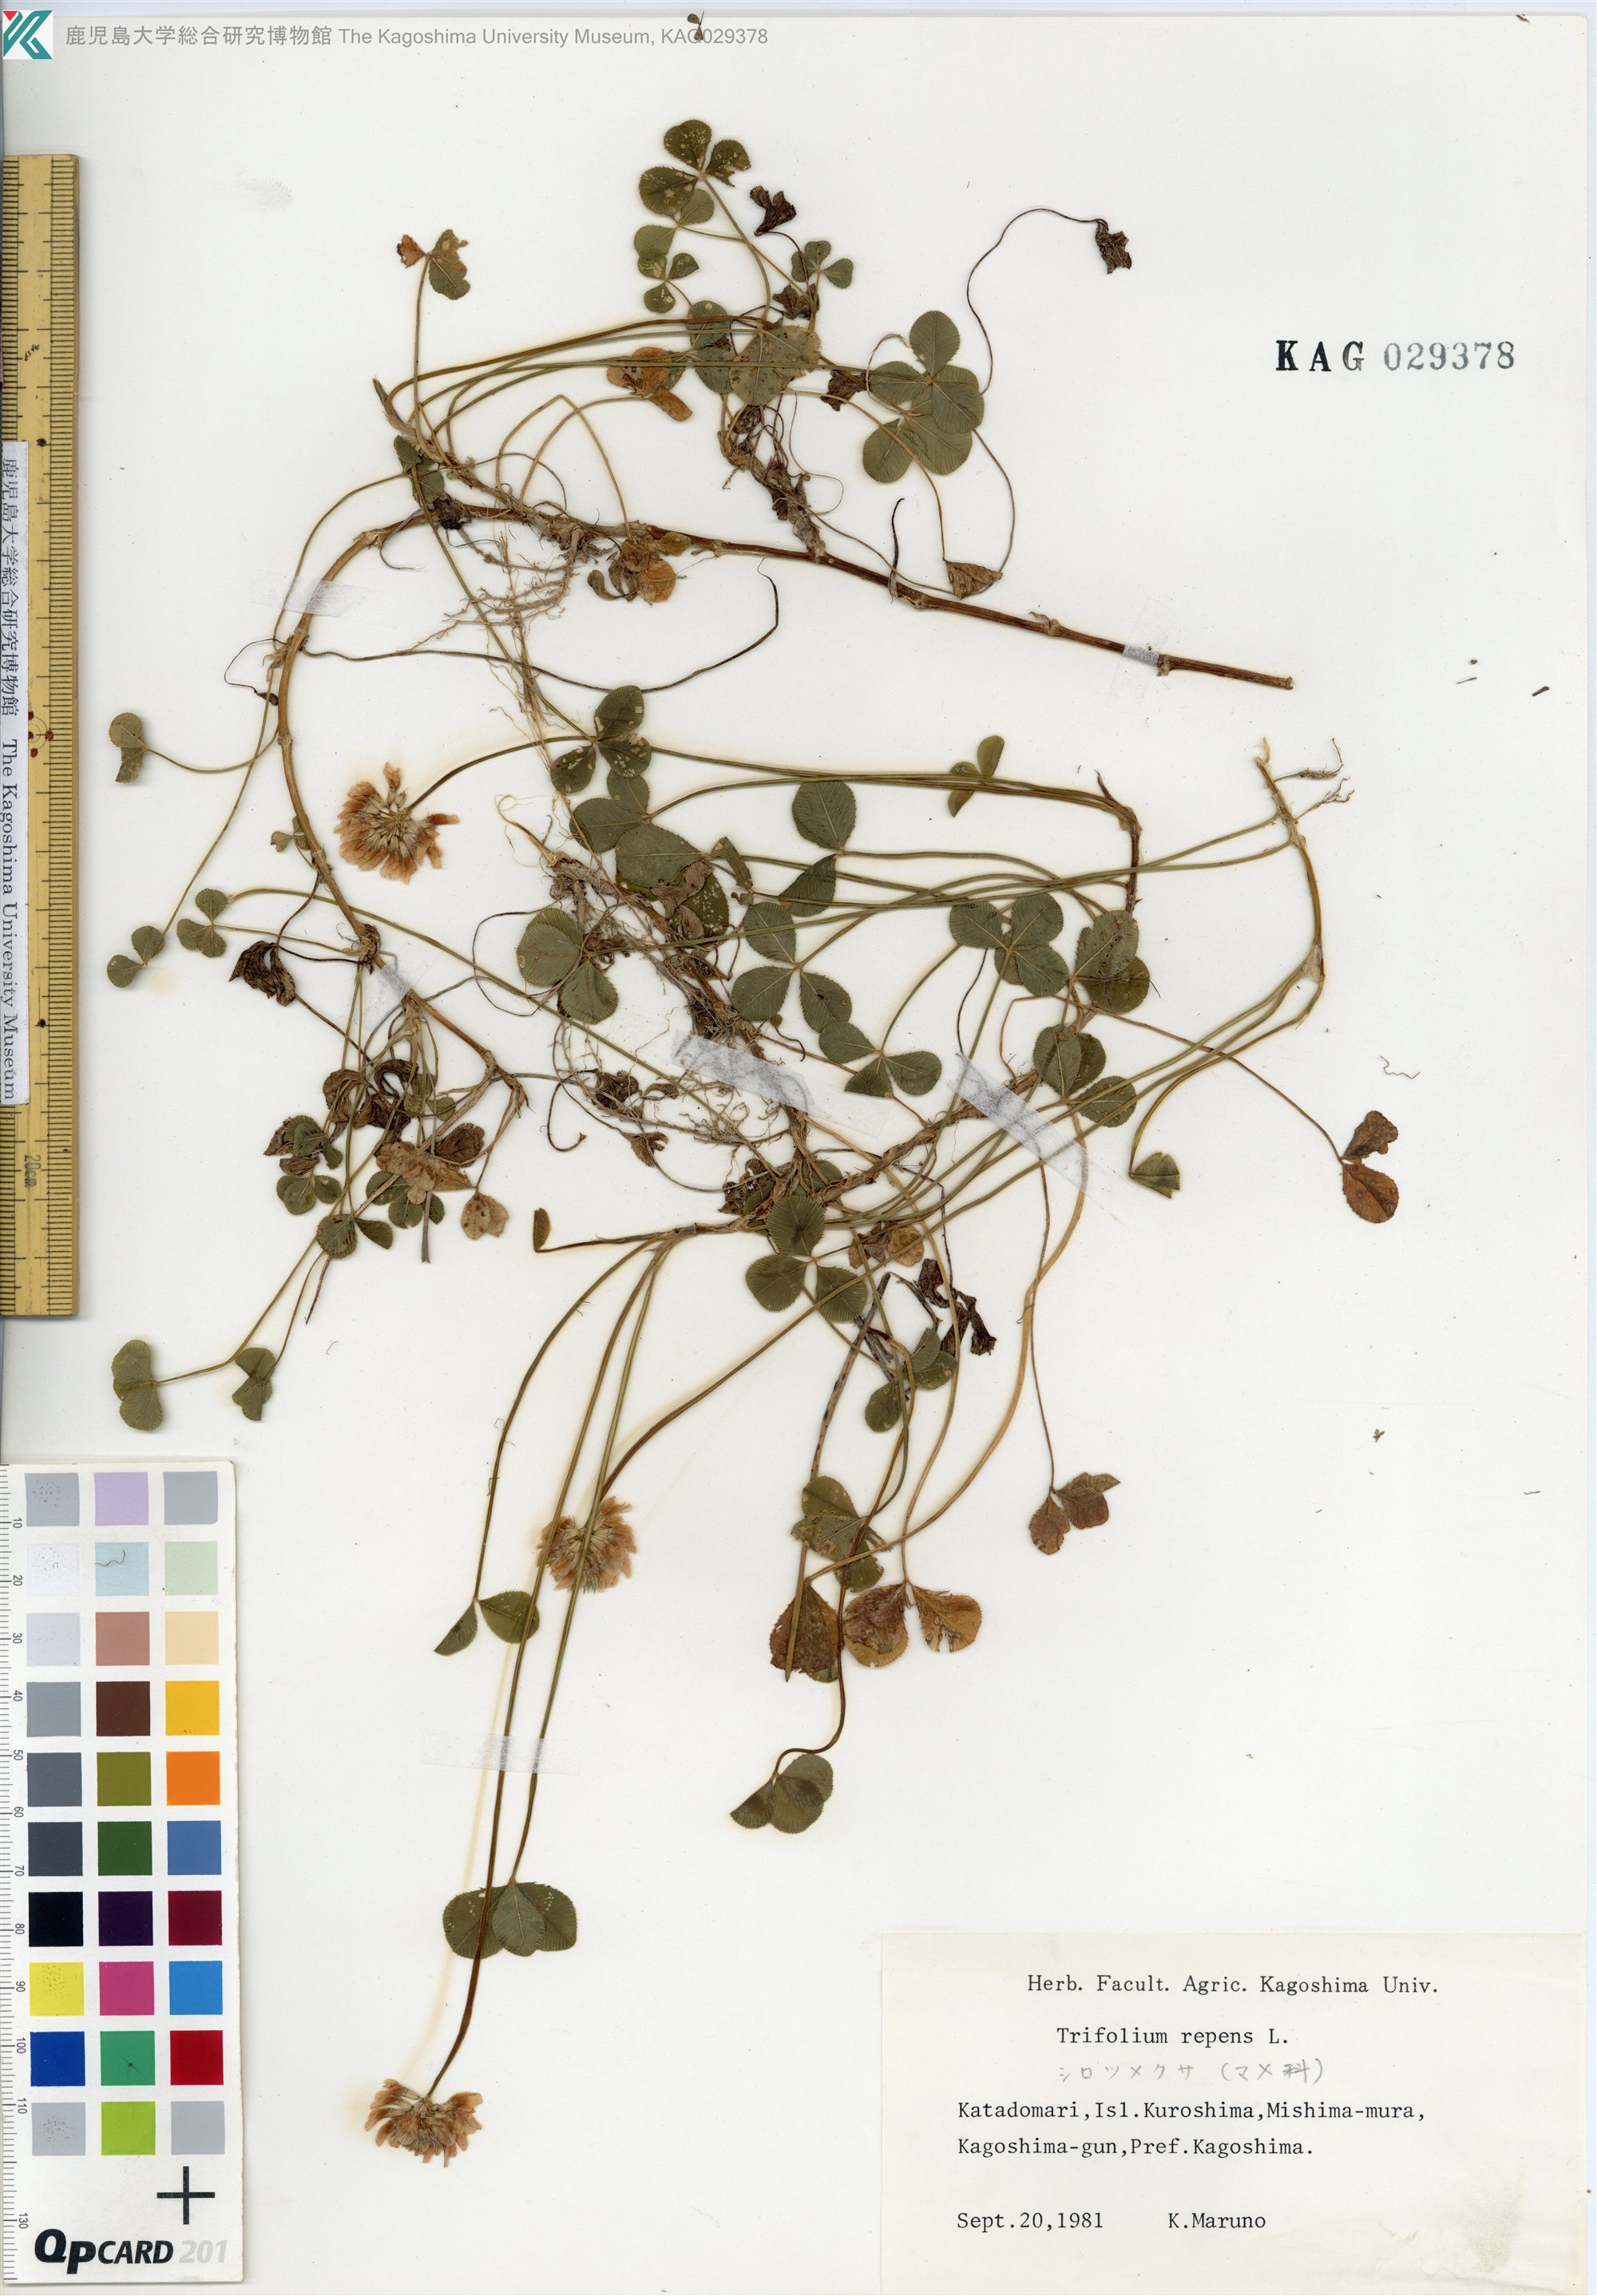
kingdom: Plantae
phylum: Tracheophyta
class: Magnoliopsida
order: Fabales
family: Fabaceae
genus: Trifolium
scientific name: Trifolium repens
